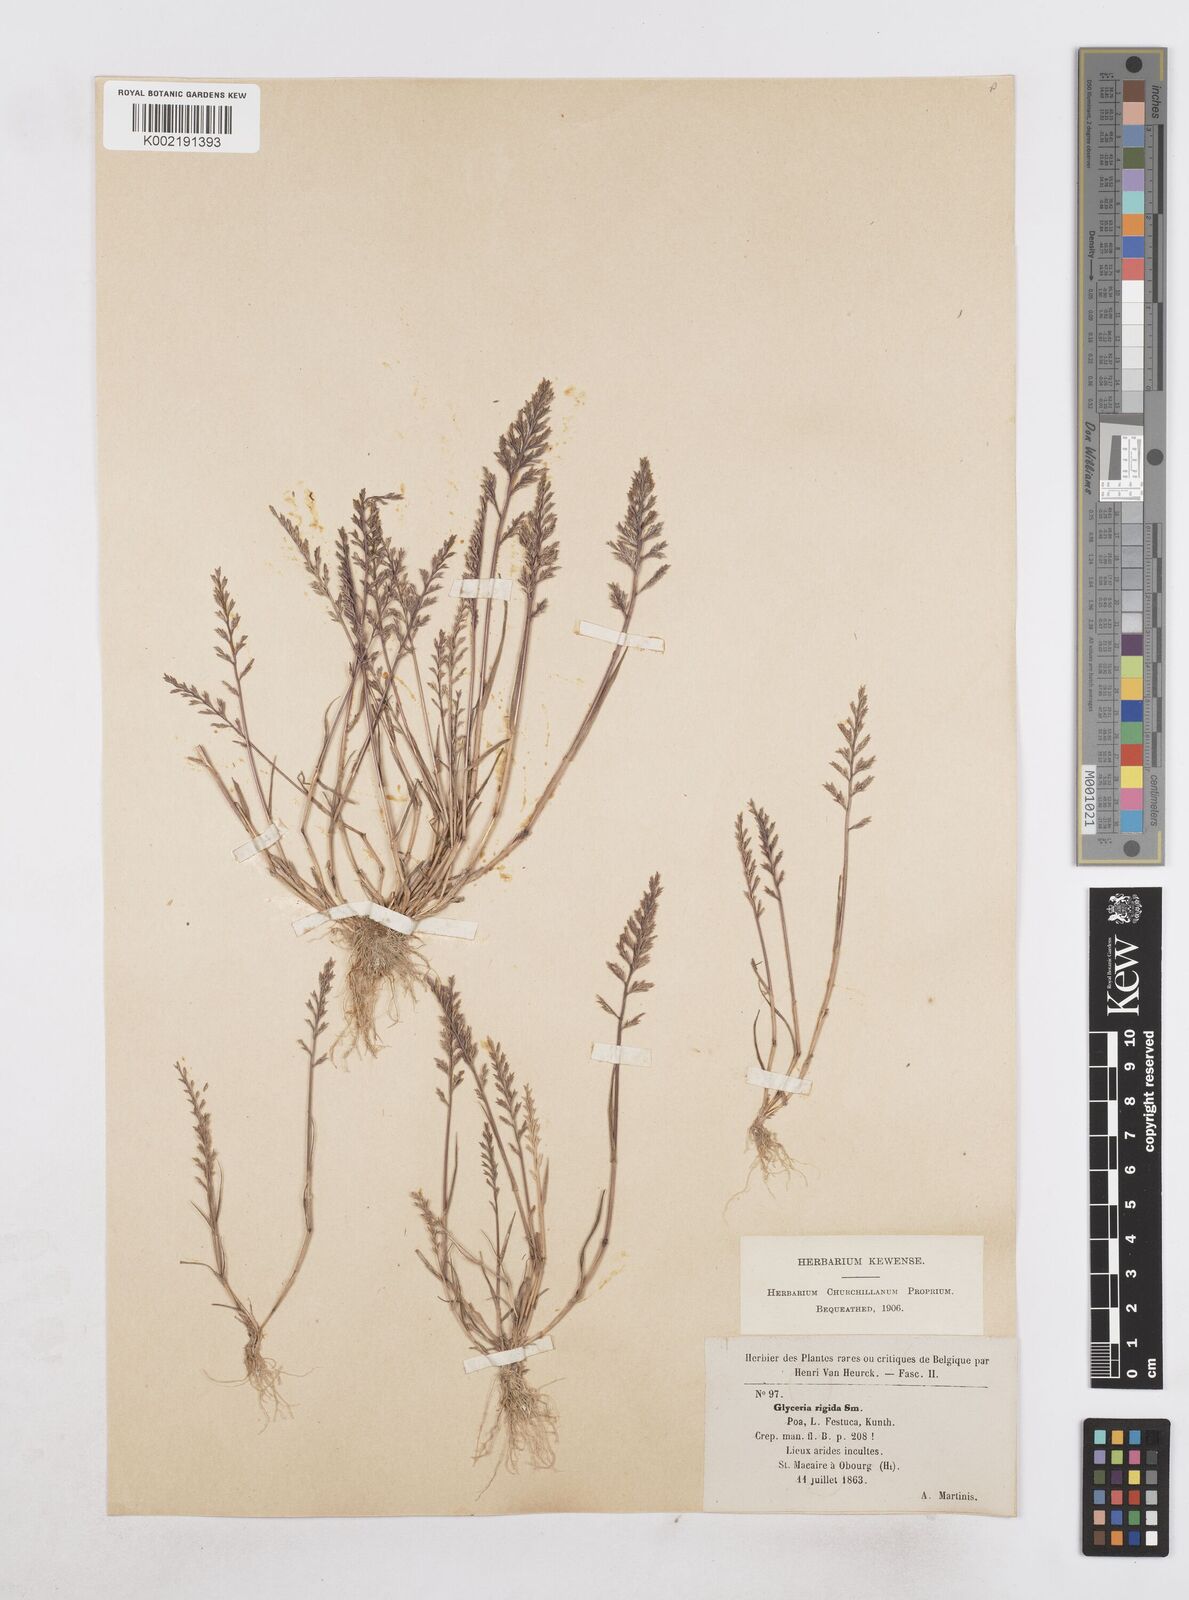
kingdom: Plantae
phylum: Tracheophyta
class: Liliopsida
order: Poales
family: Poaceae
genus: Catapodium
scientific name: Catapodium rigidum
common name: Fern-grass
